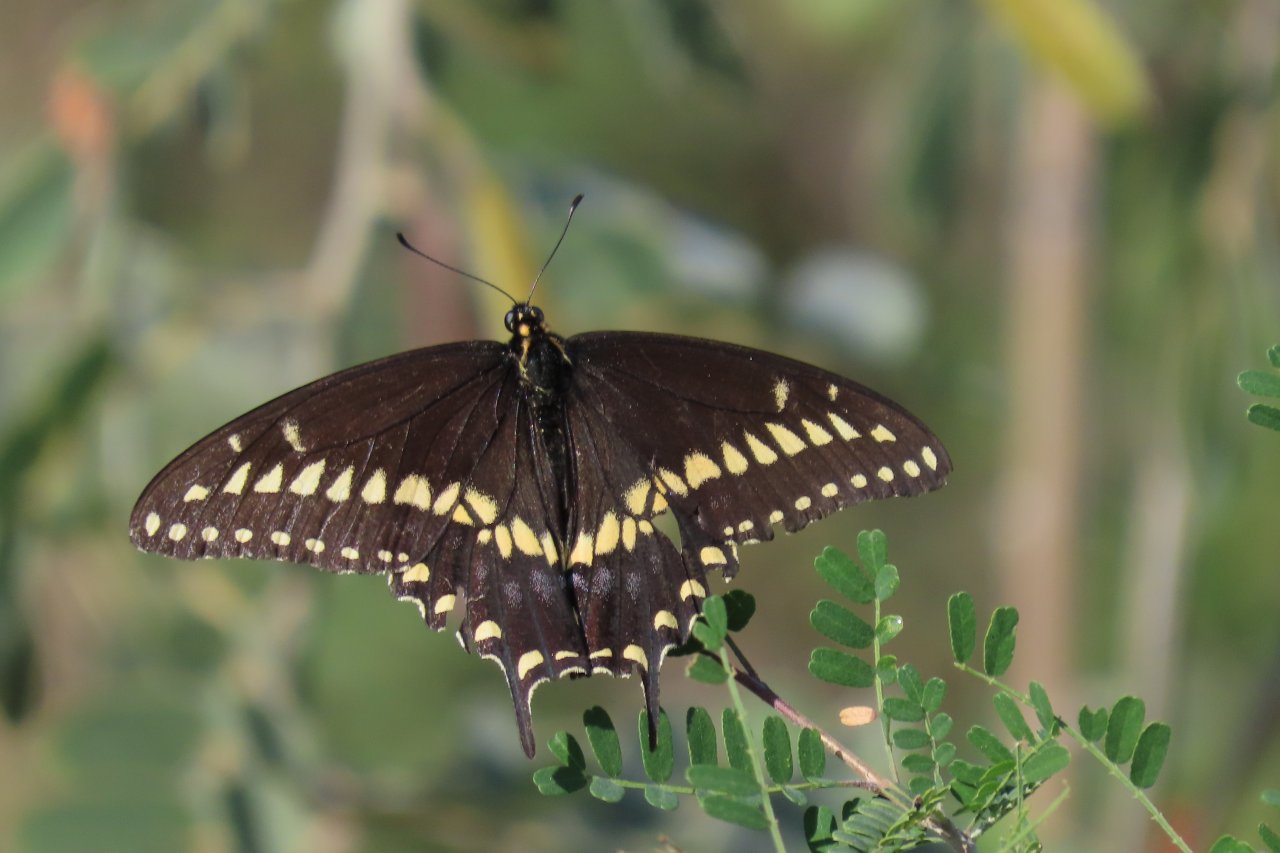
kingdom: Animalia
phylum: Arthropoda
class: Insecta
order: Lepidoptera
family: Papilionidae
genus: Papilio
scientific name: Papilio polyxenes
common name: Black Swallowtail
